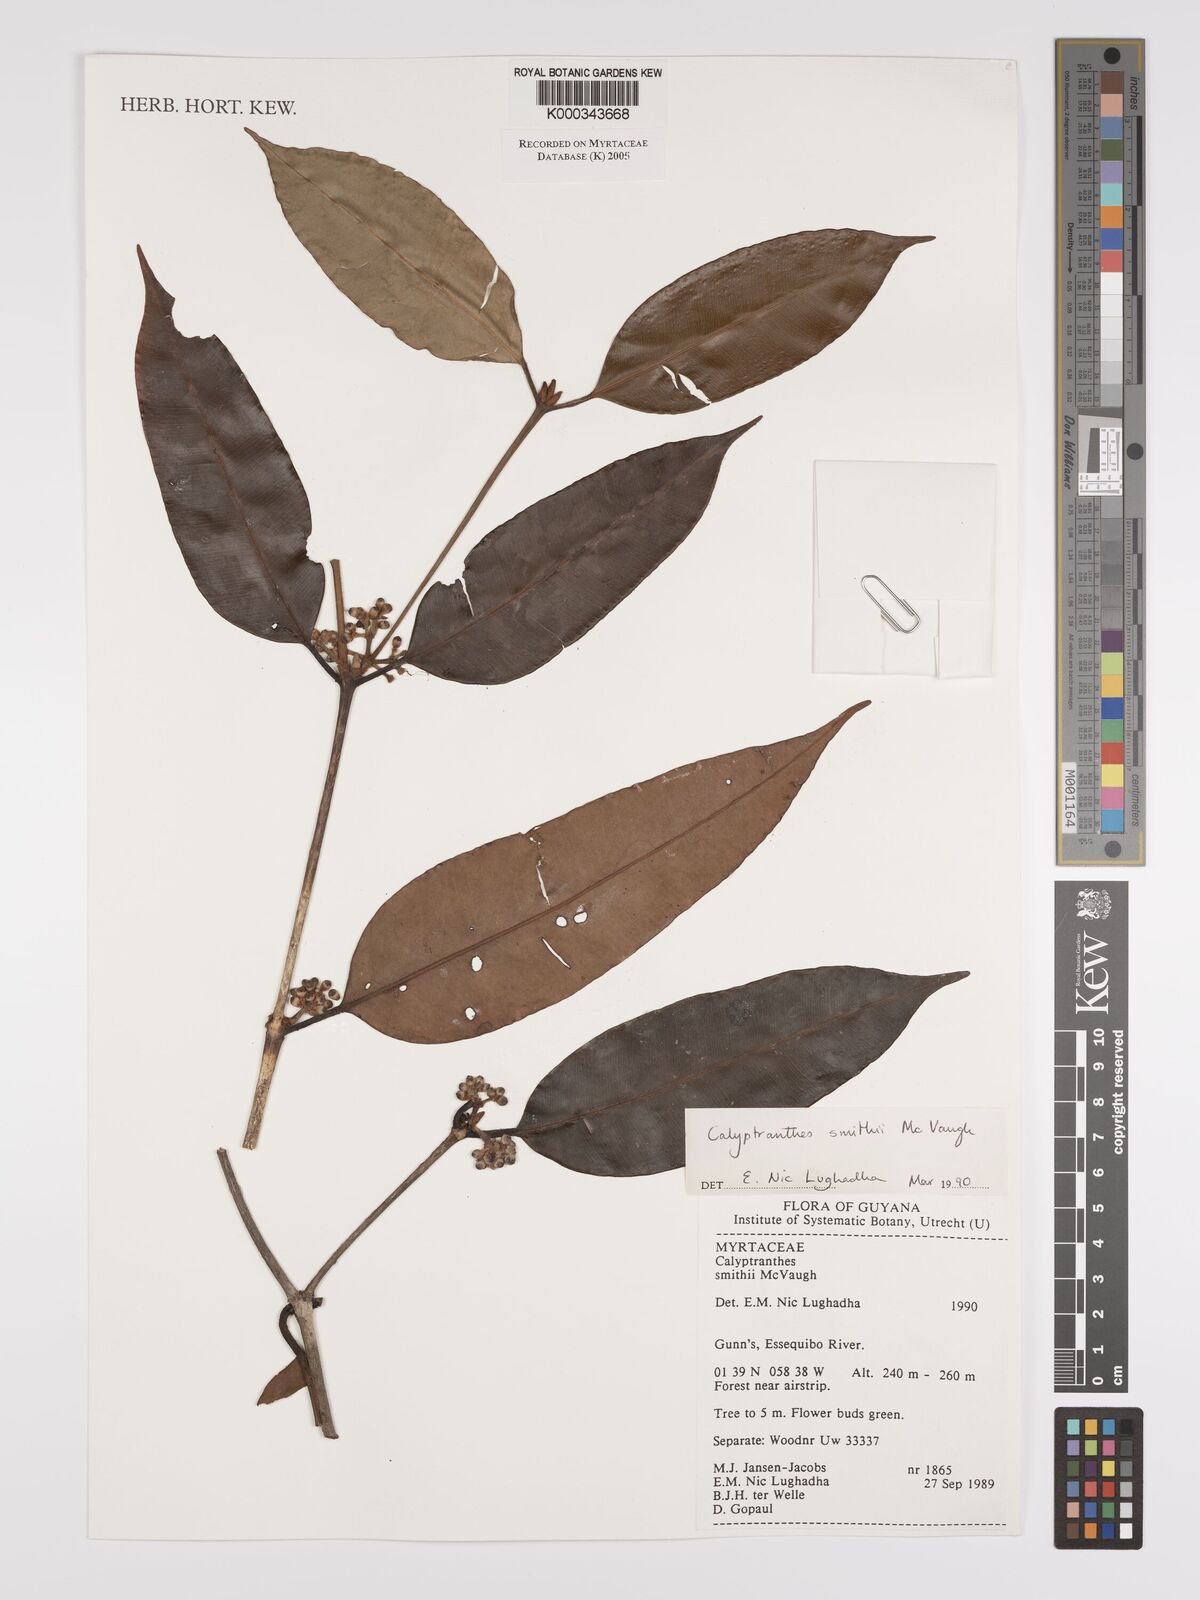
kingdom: Plantae
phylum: Tracheophyta
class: Magnoliopsida
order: Myrtales
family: Myrtaceae
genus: Myrcia
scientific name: Myrcia neosmithii
